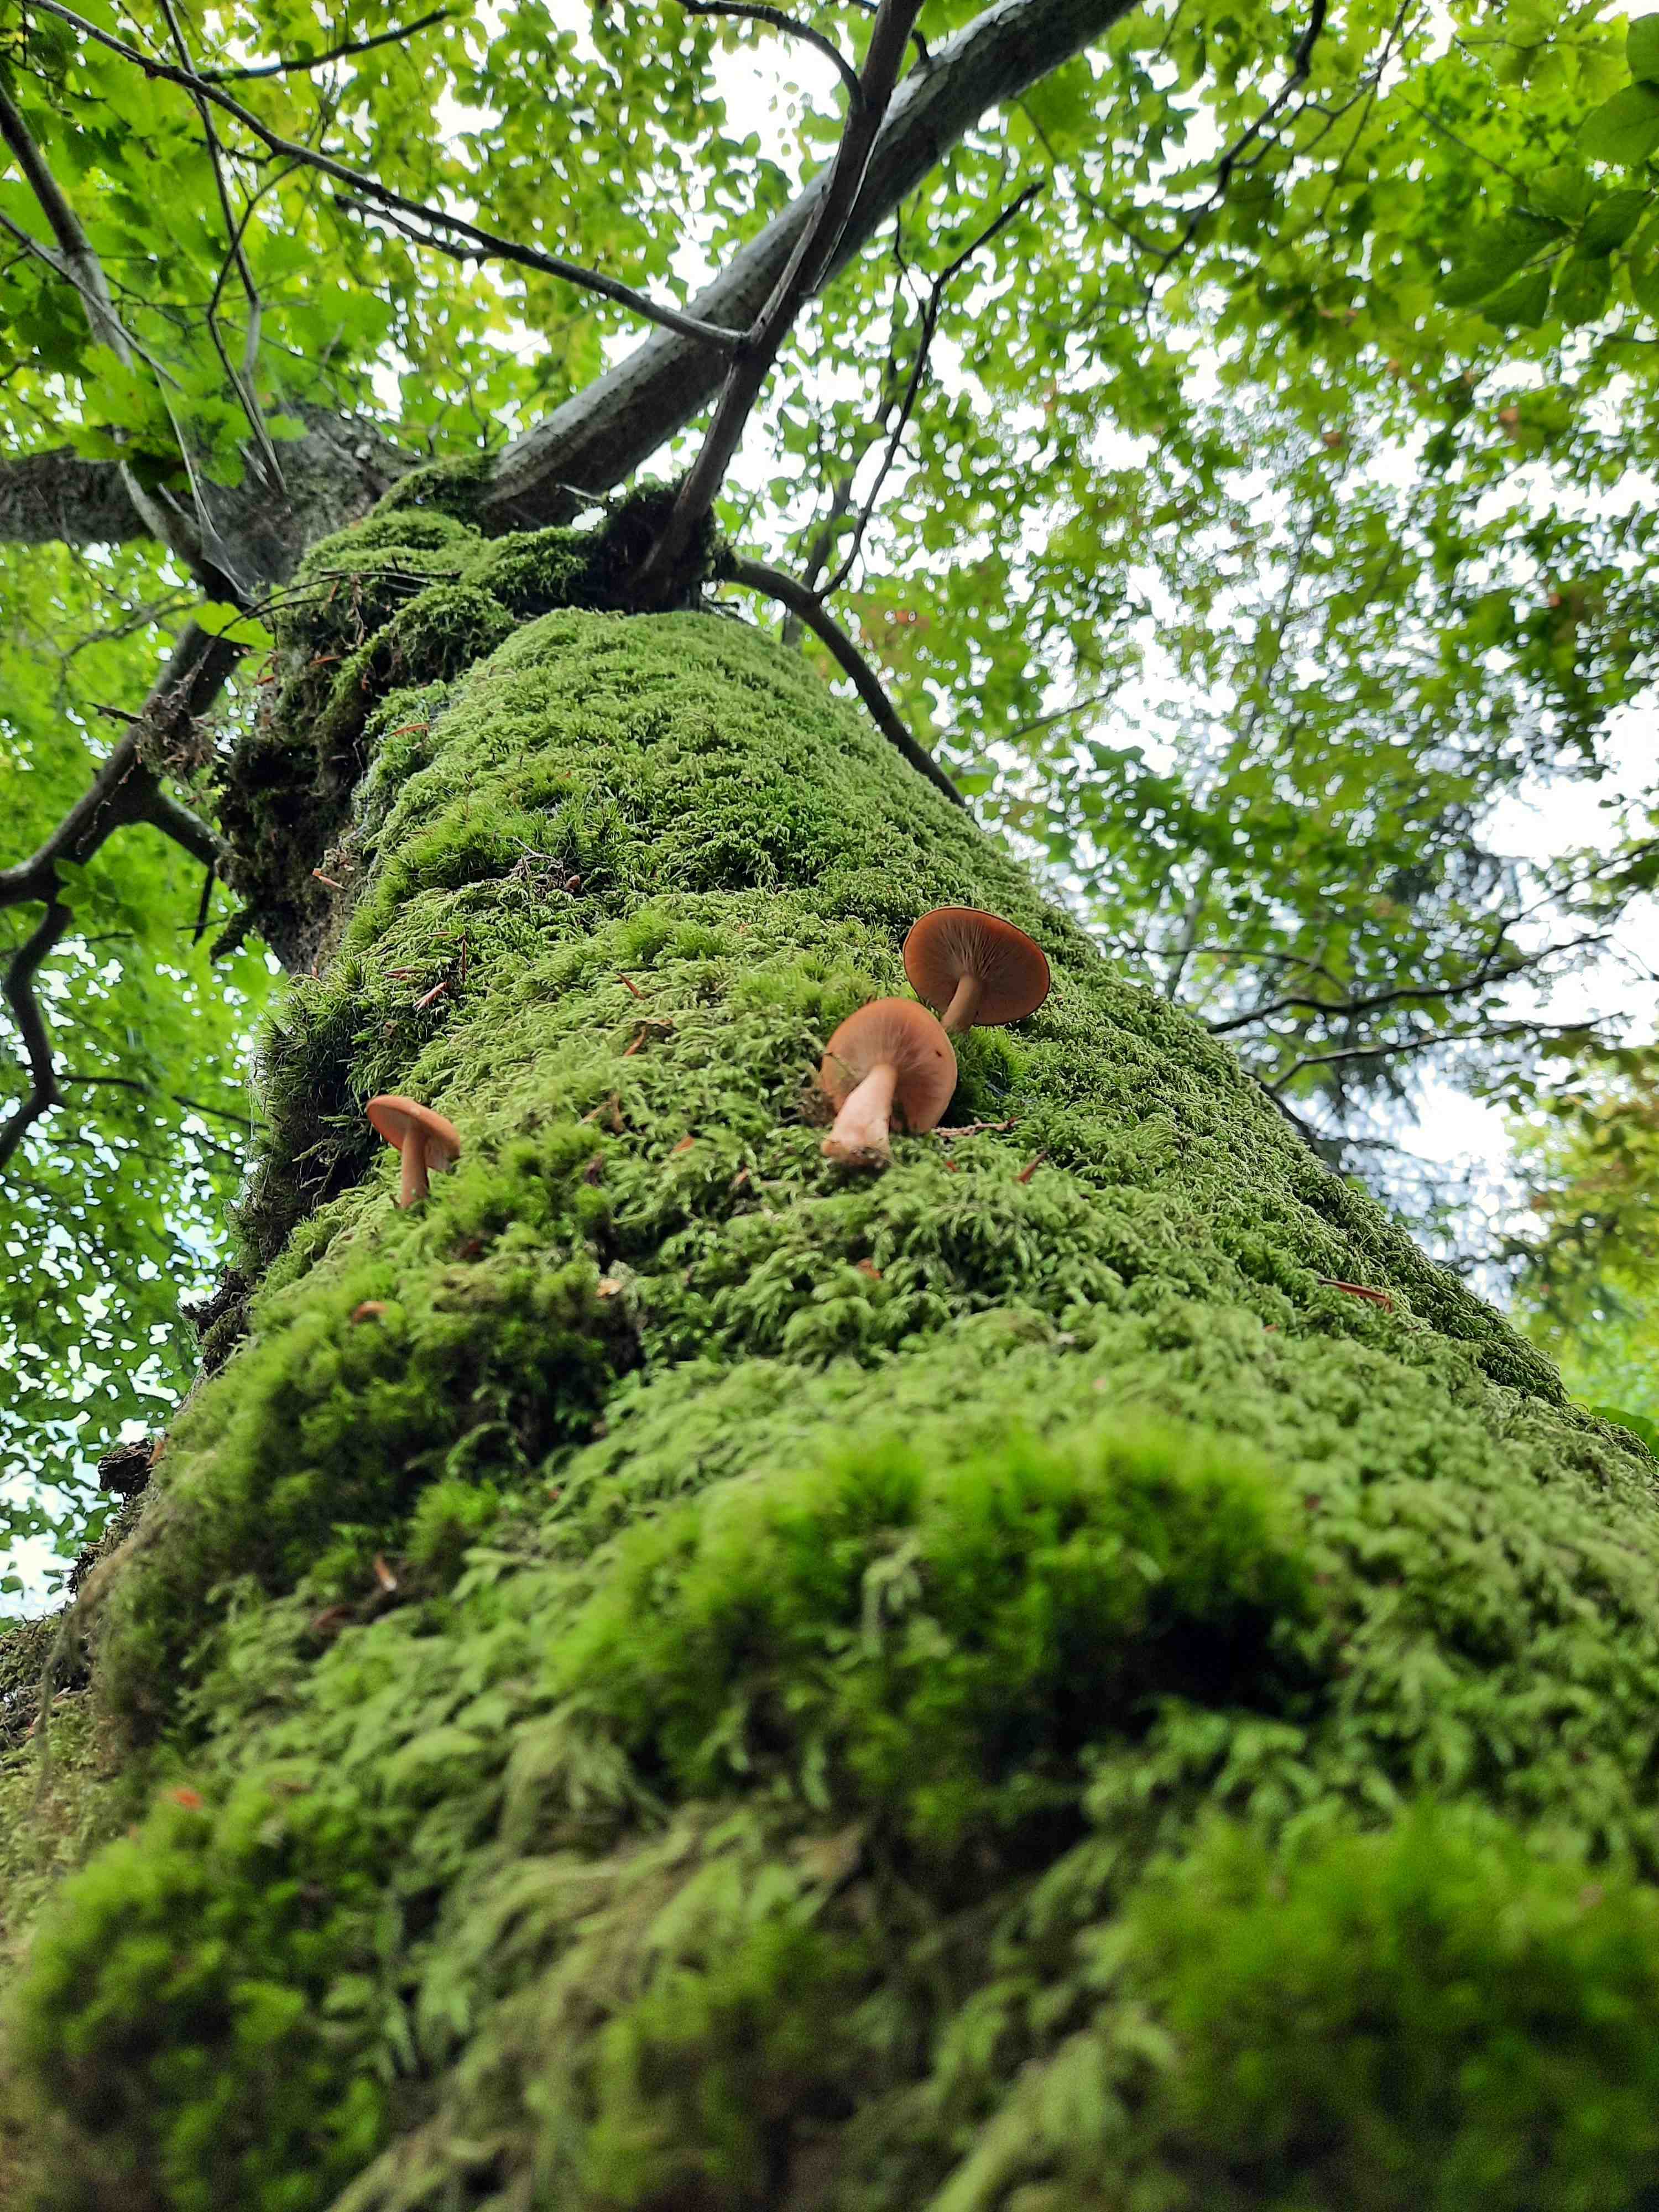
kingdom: Fungi
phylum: Basidiomycota
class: Agaricomycetes
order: Russulales
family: Russulaceae
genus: Lactarius
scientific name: Lactarius tabidus
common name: rynket mælkehat
